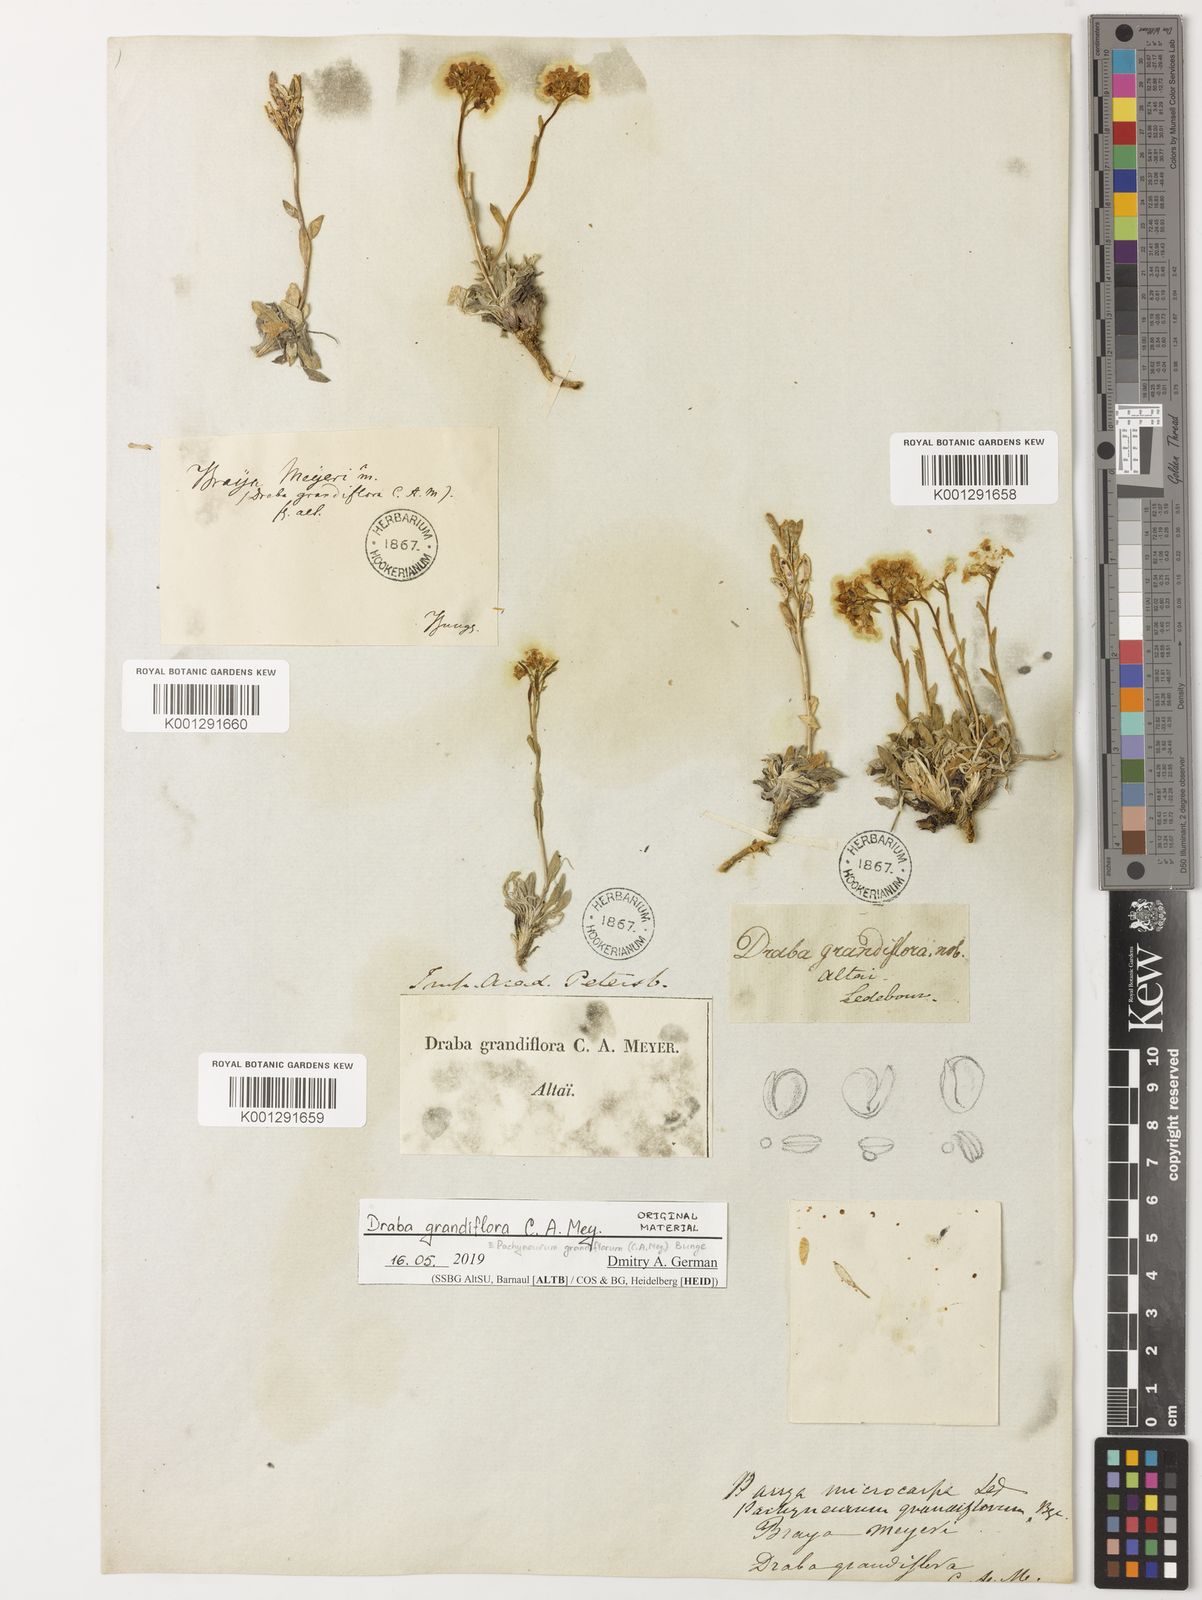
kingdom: Plantae
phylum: Tracheophyta
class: Magnoliopsida
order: Brassicales
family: Brassicaceae
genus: Pachyneurum
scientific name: Pachyneurum grandiflorum
